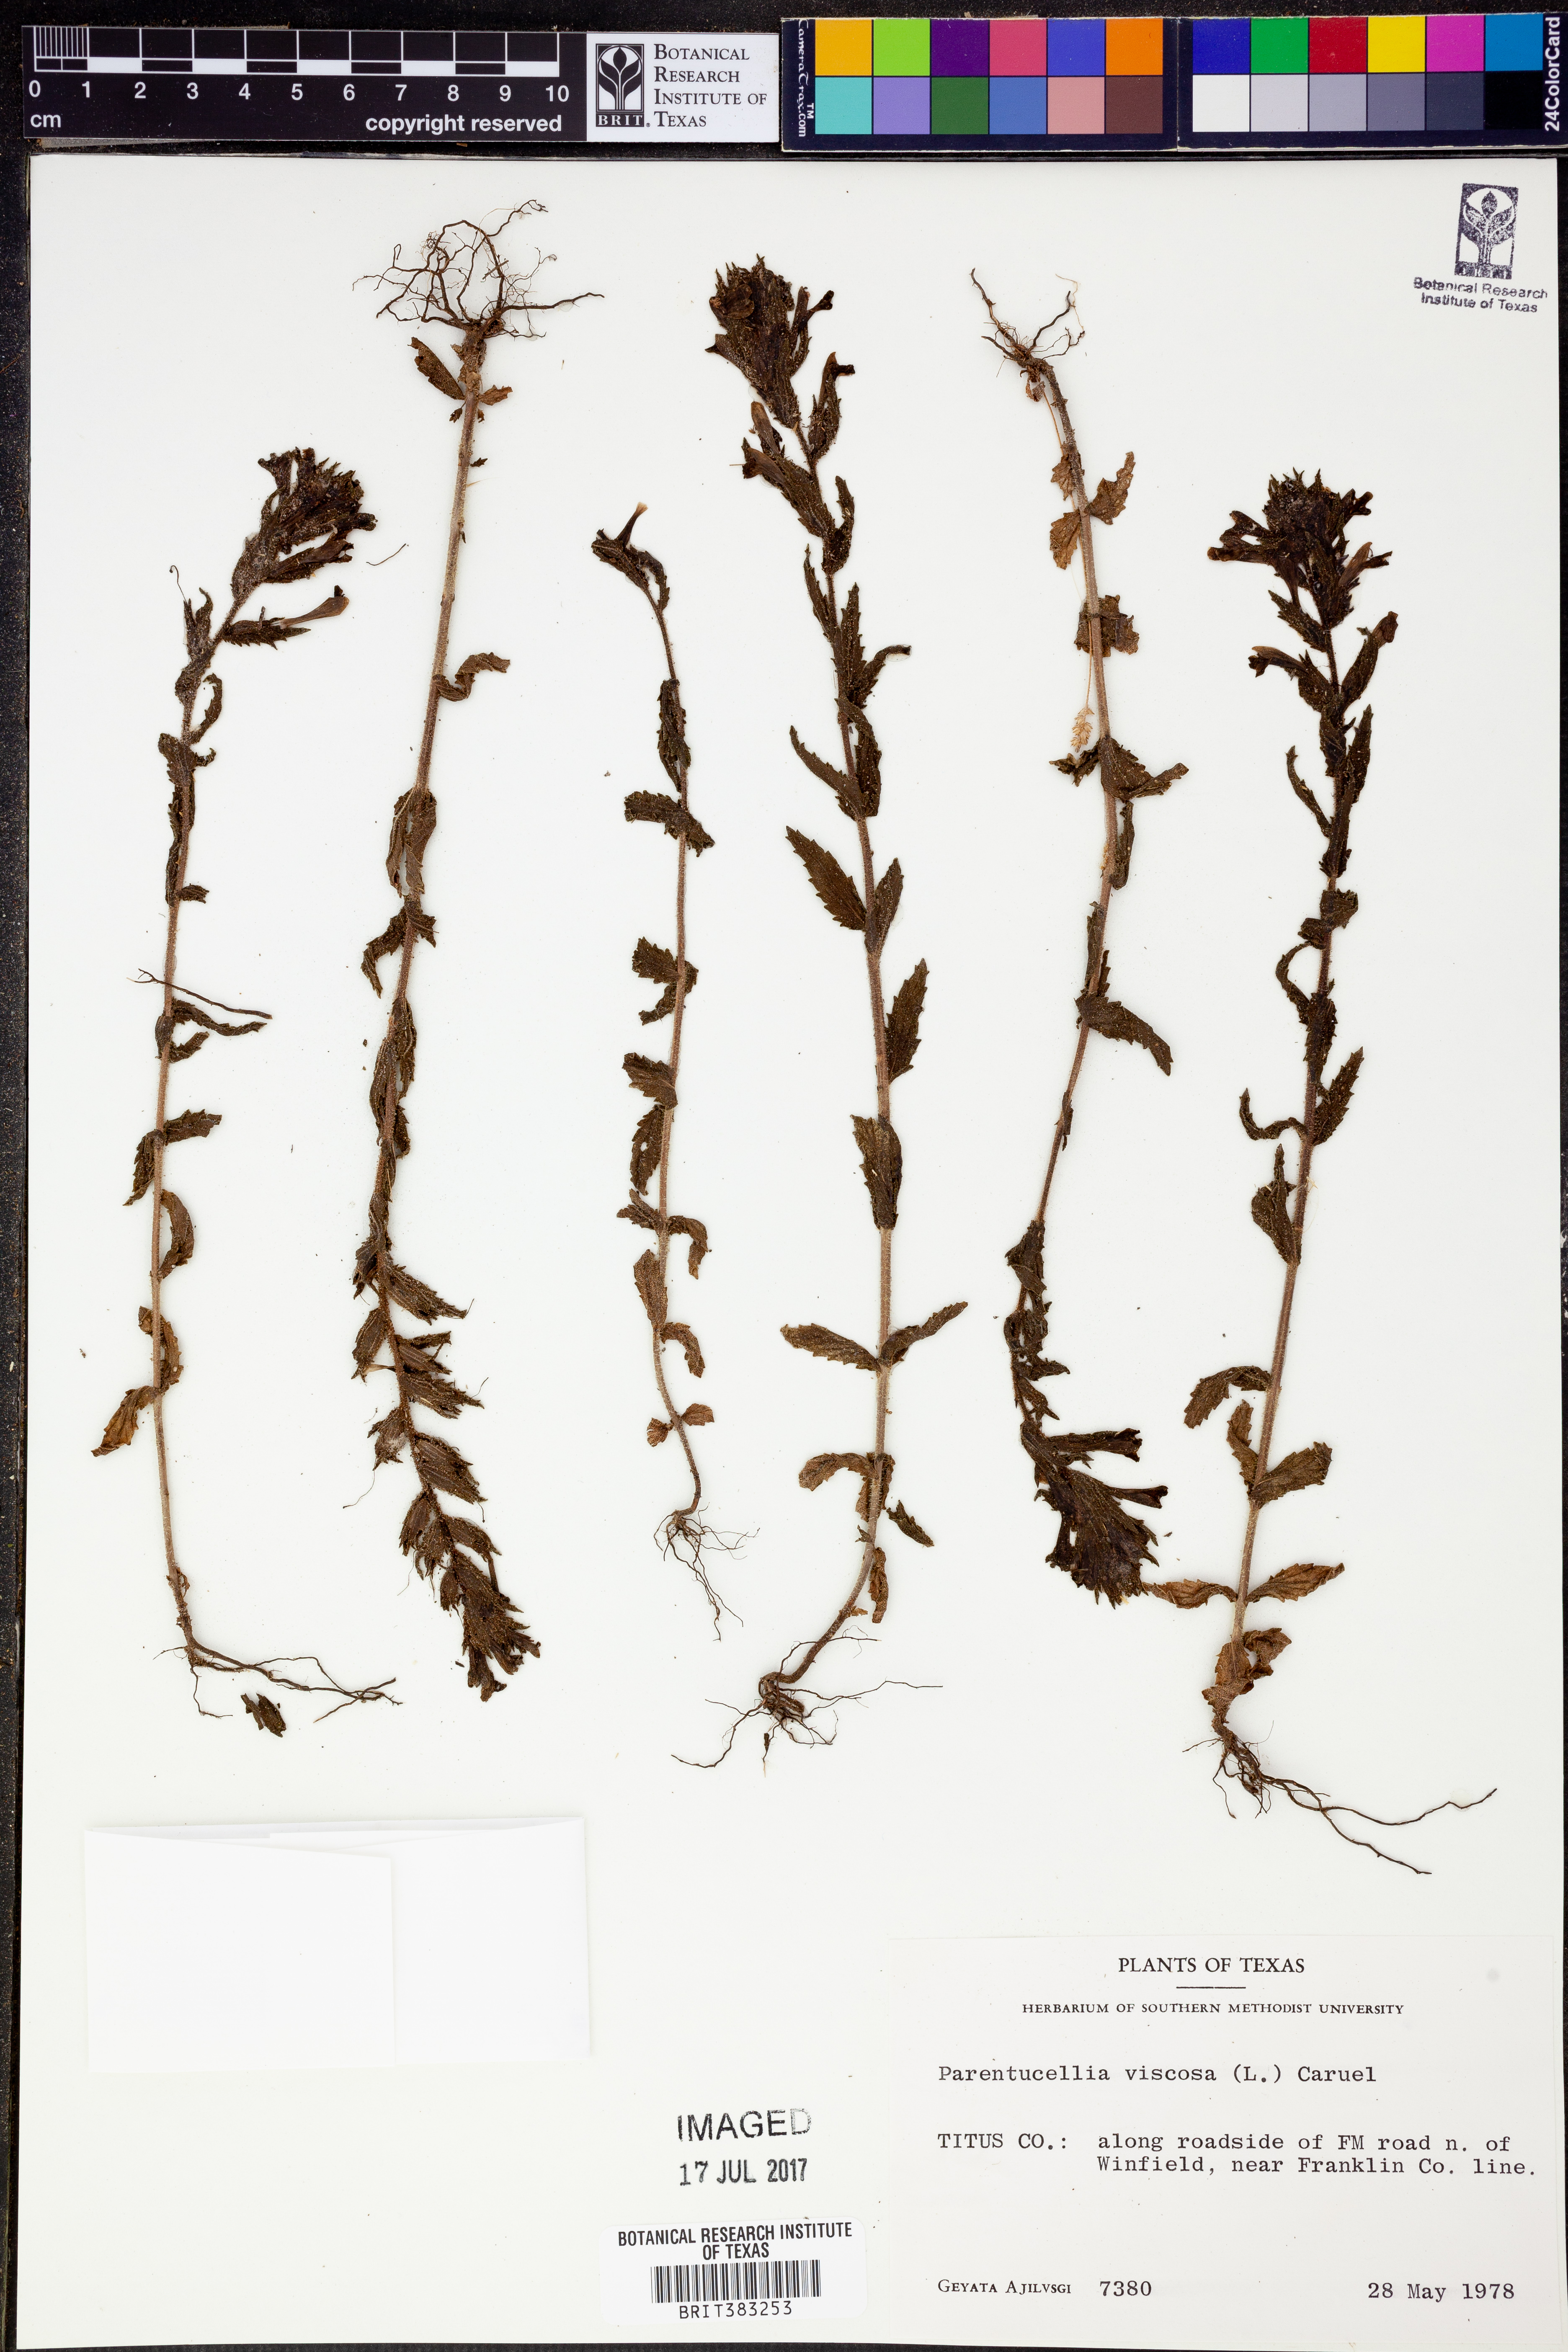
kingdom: Plantae
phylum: Tracheophyta
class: Magnoliopsida
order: Lamiales
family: Orobanchaceae
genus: Bellardia
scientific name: Bellardia viscosa
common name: Sticky parentucellia
